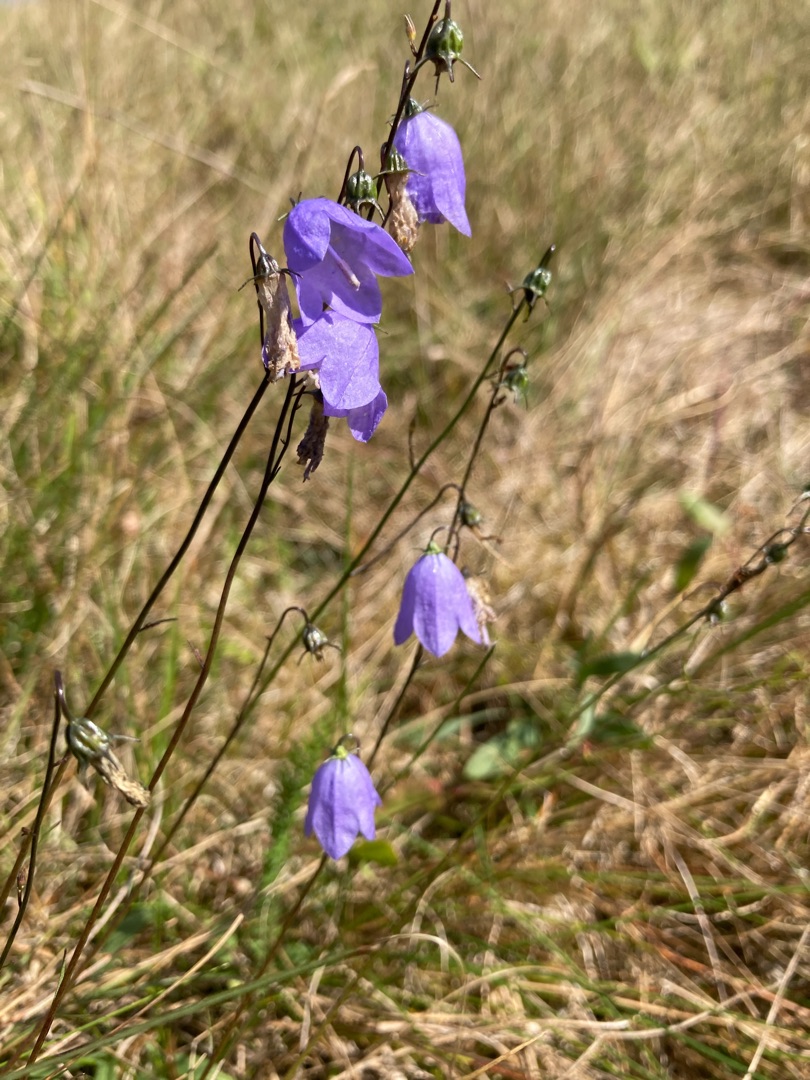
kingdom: Plantae
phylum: Tracheophyta
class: Magnoliopsida
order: Asterales
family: Campanulaceae
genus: Campanula
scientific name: Campanula rotundifolia
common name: Liden klokke
